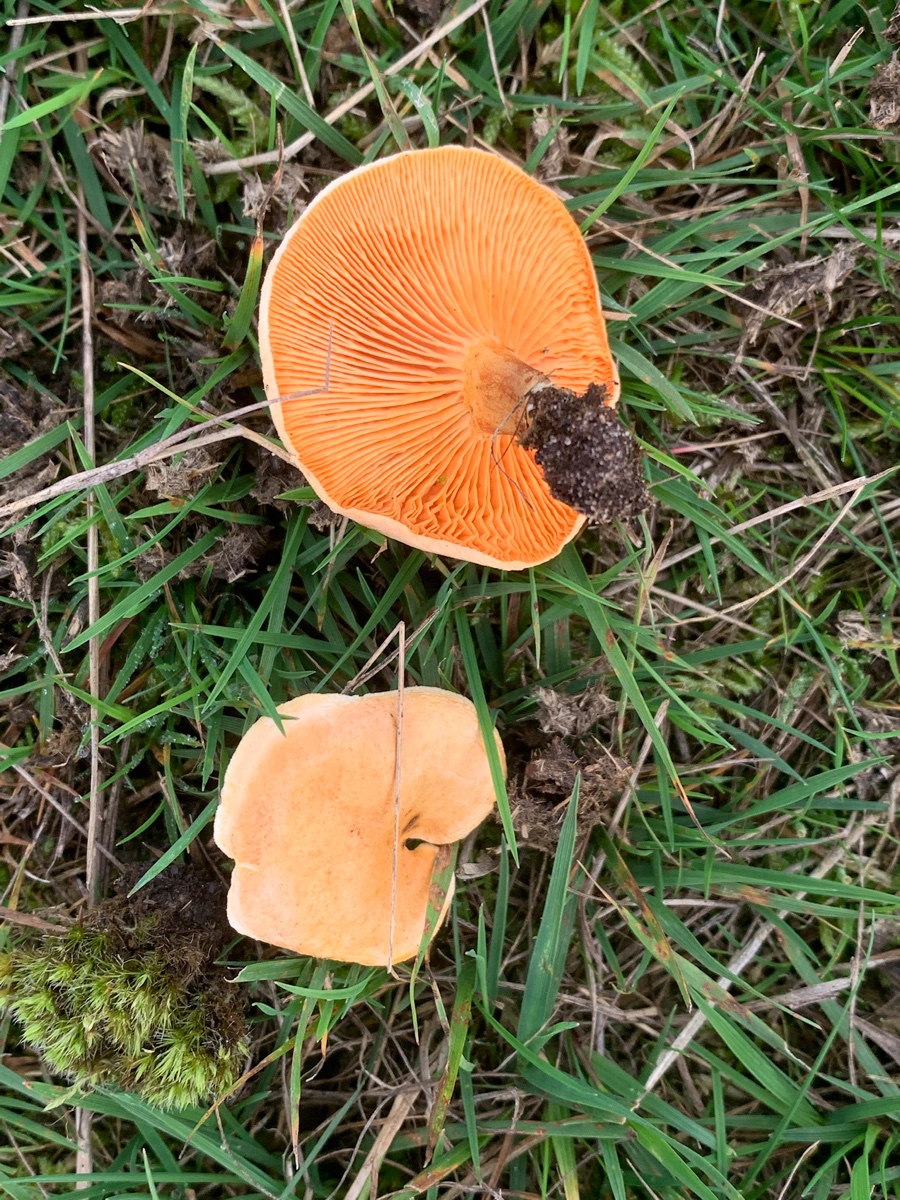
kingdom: Fungi
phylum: Basidiomycota
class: Agaricomycetes
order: Boletales
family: Hygrophoropsidaceae
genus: Hygrophoropsis
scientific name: Hygrophoropsis aurantiaca
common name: almindelig orangekantarel
